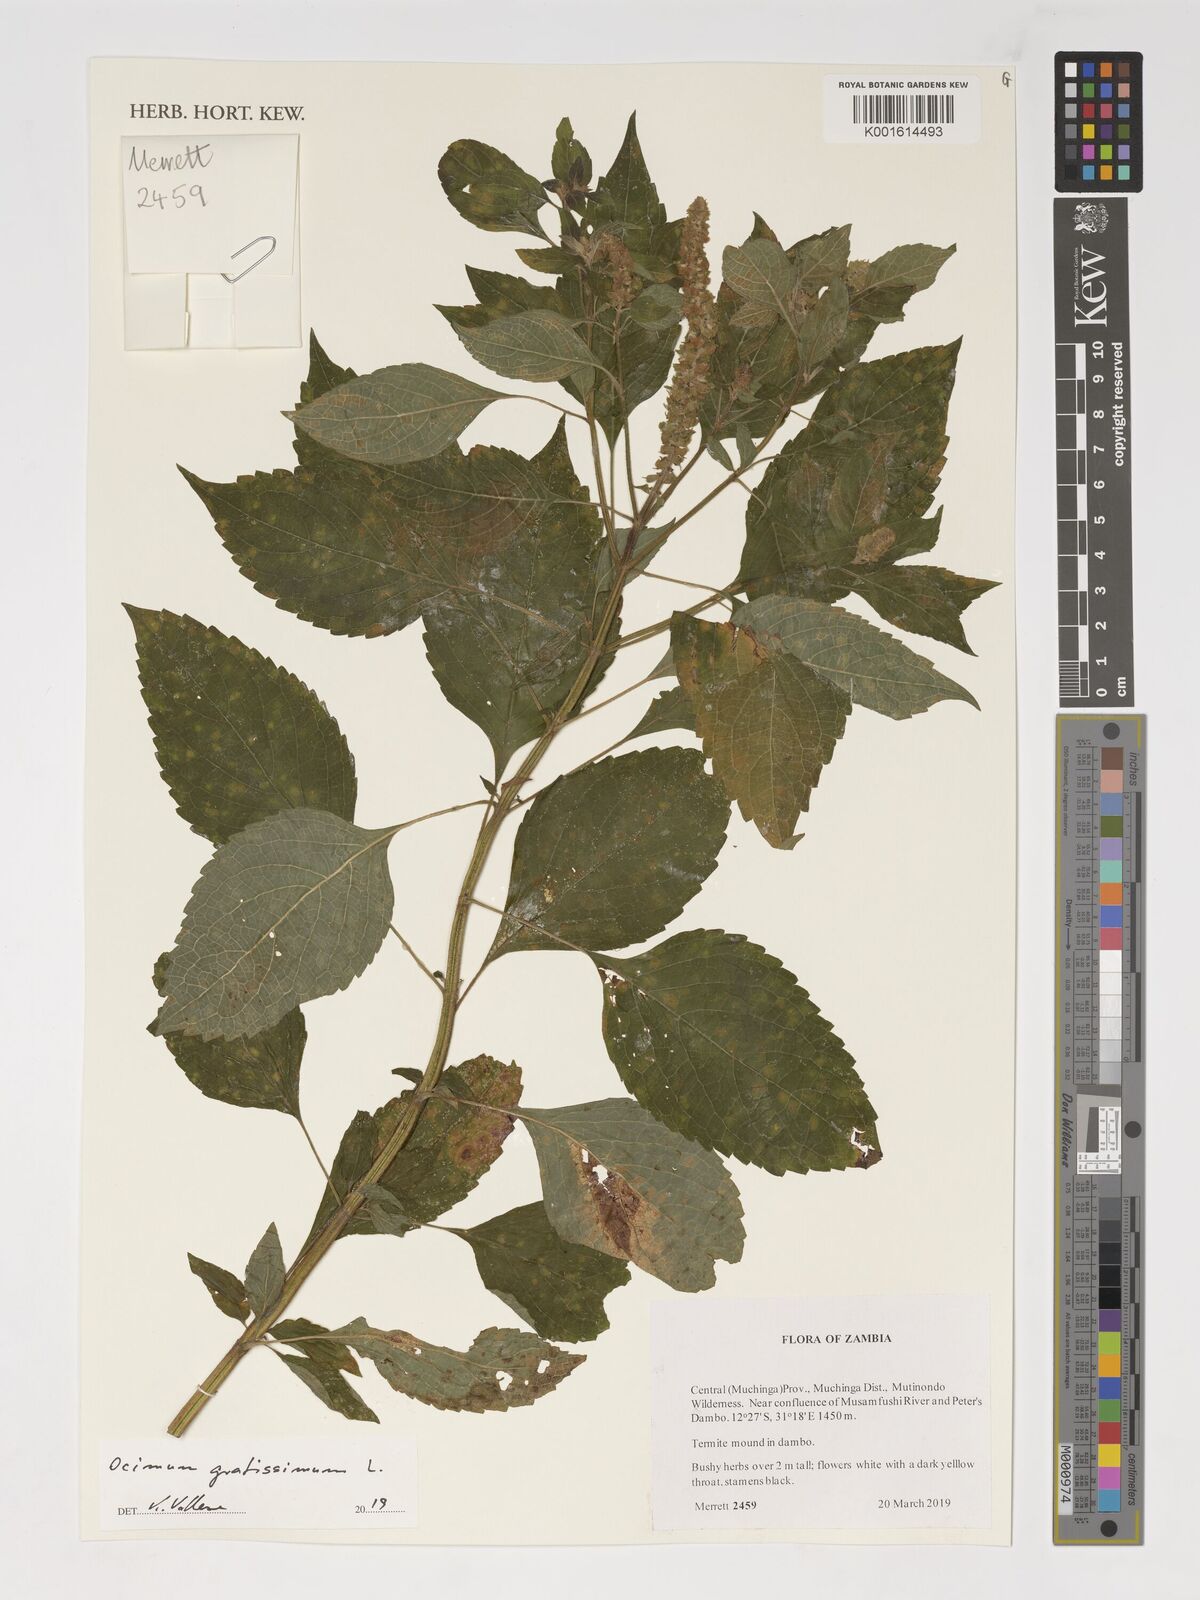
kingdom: Plantae
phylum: Tracheophyta
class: Magnoliopsida
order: Lamiales
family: Lamiaceae
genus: Ocimum
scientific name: Ocimum gratissimum
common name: African basil
